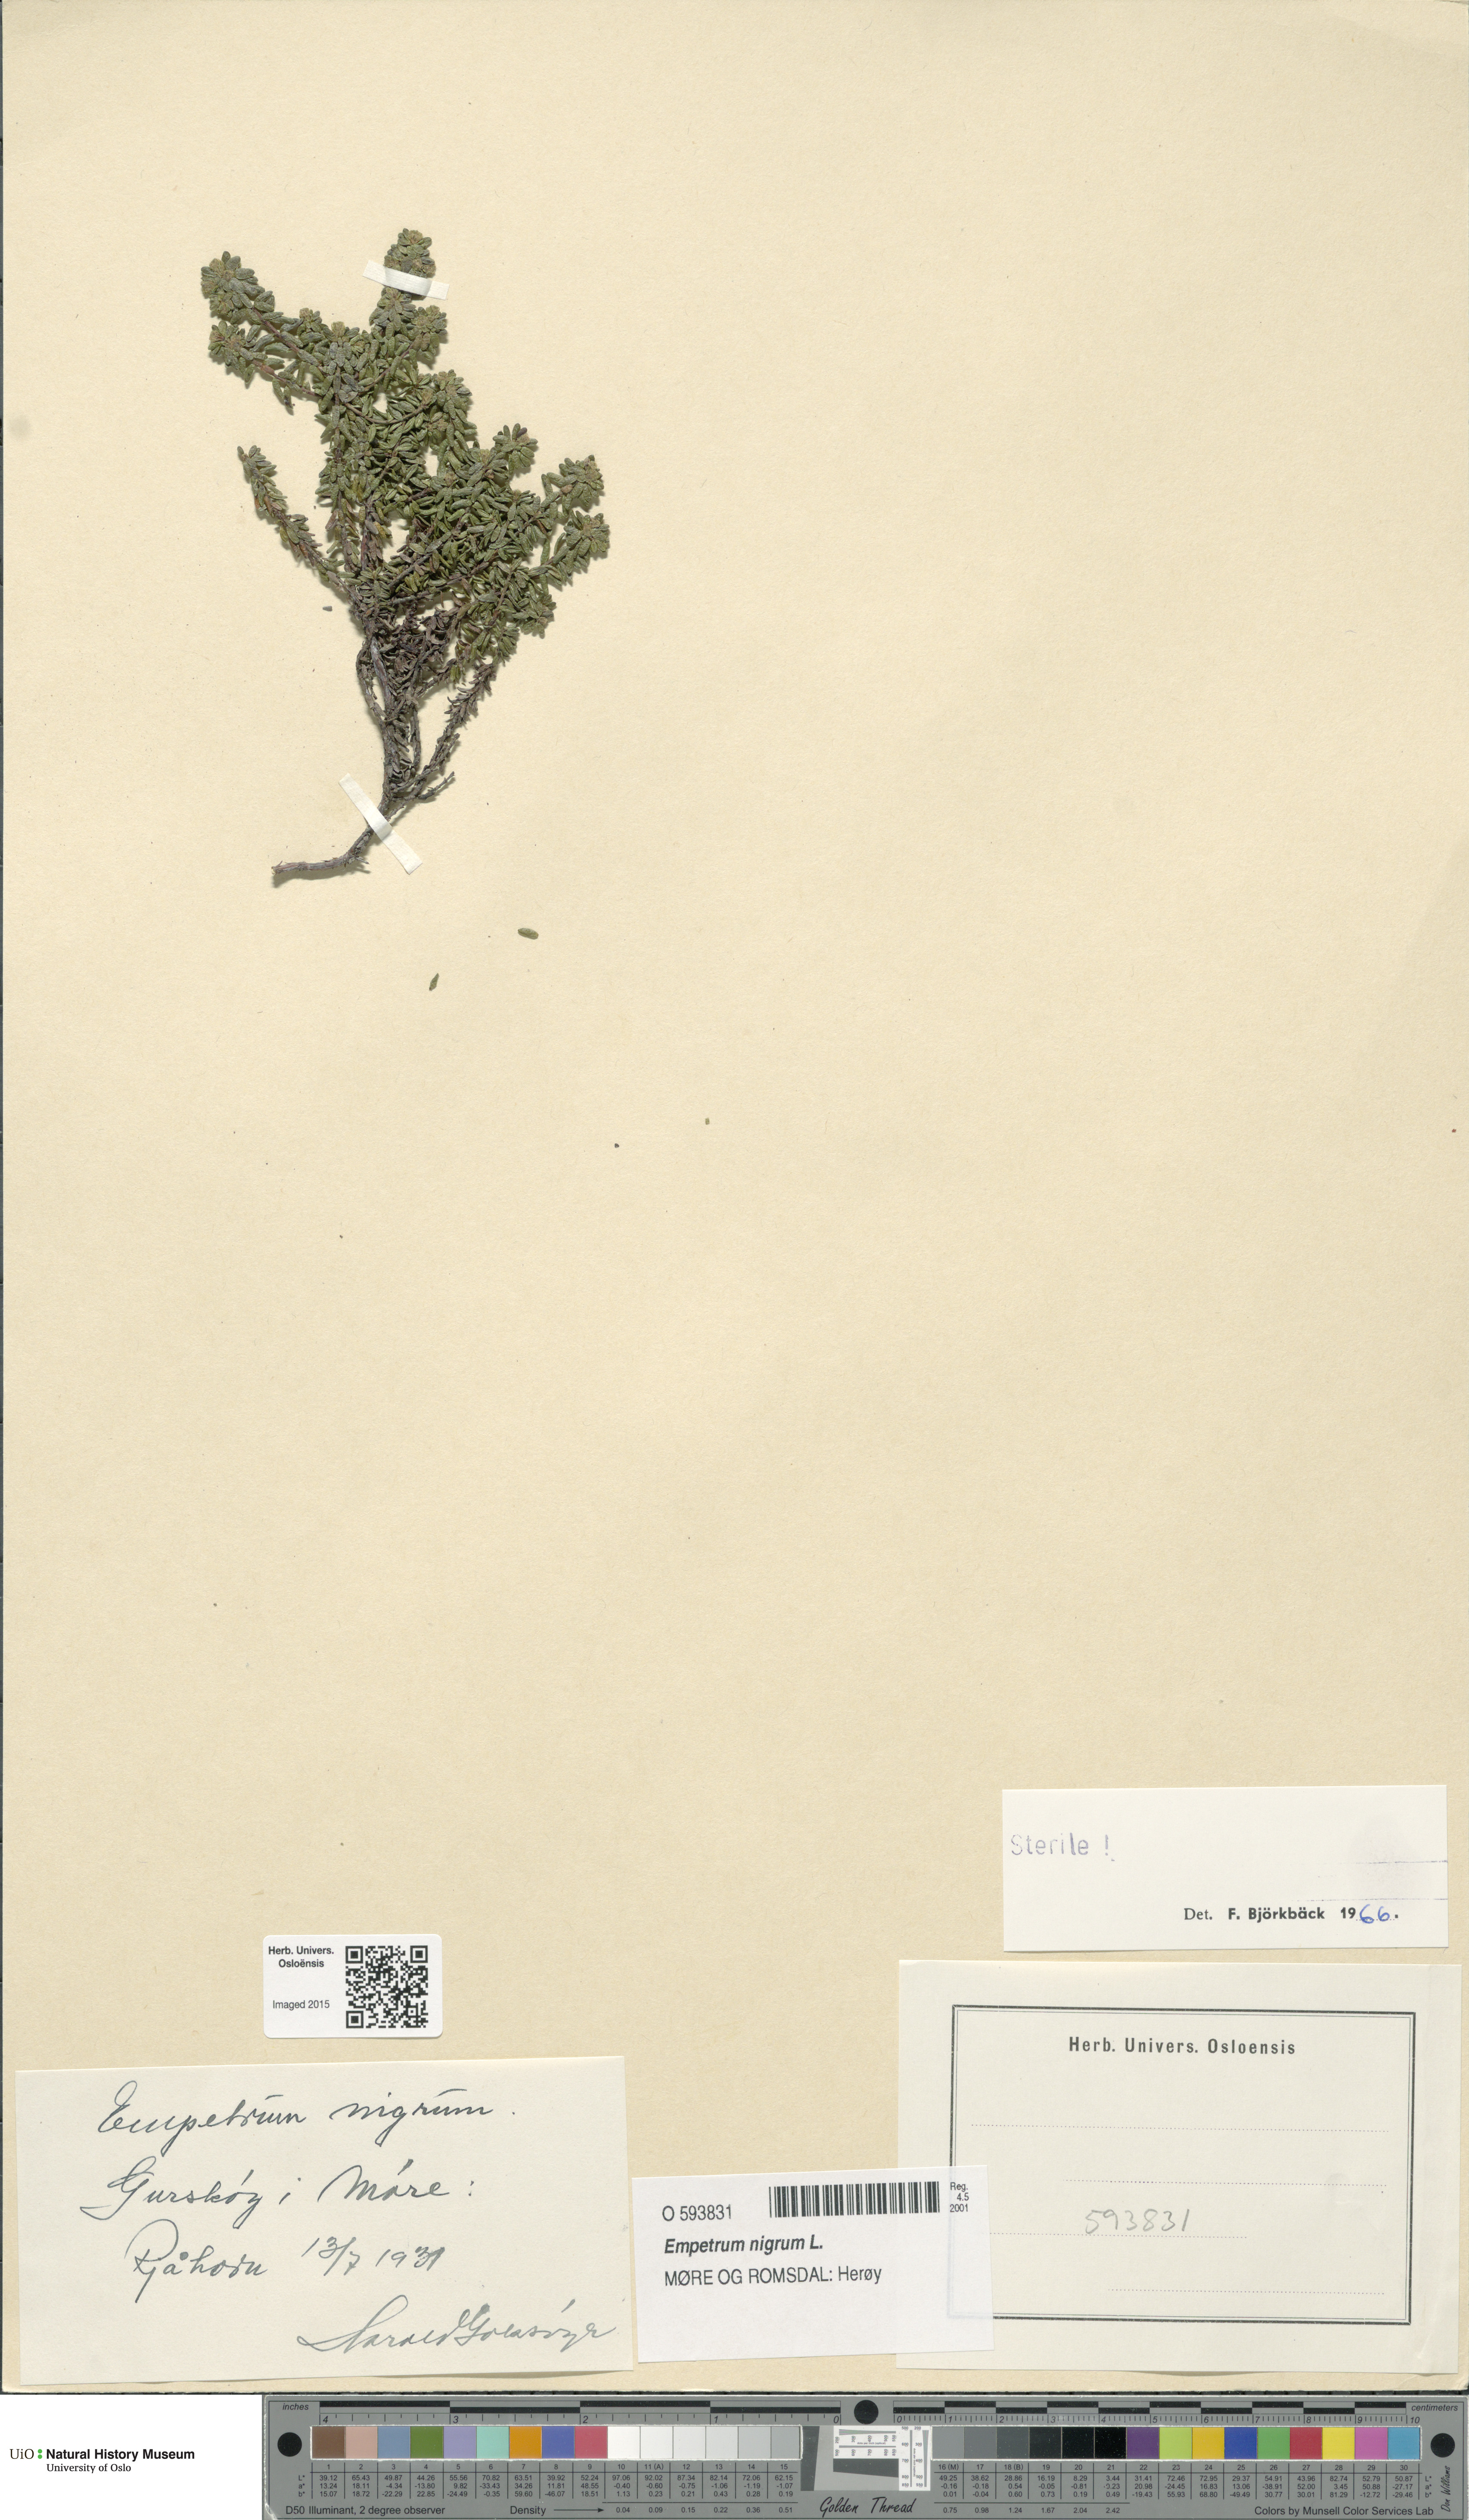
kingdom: Plantae
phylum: Tracheophyta
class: Magnoliopsida
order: Ericales
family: Ericaceae
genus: Empetrum
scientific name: Empetrum nigrum
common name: Black crowberry
